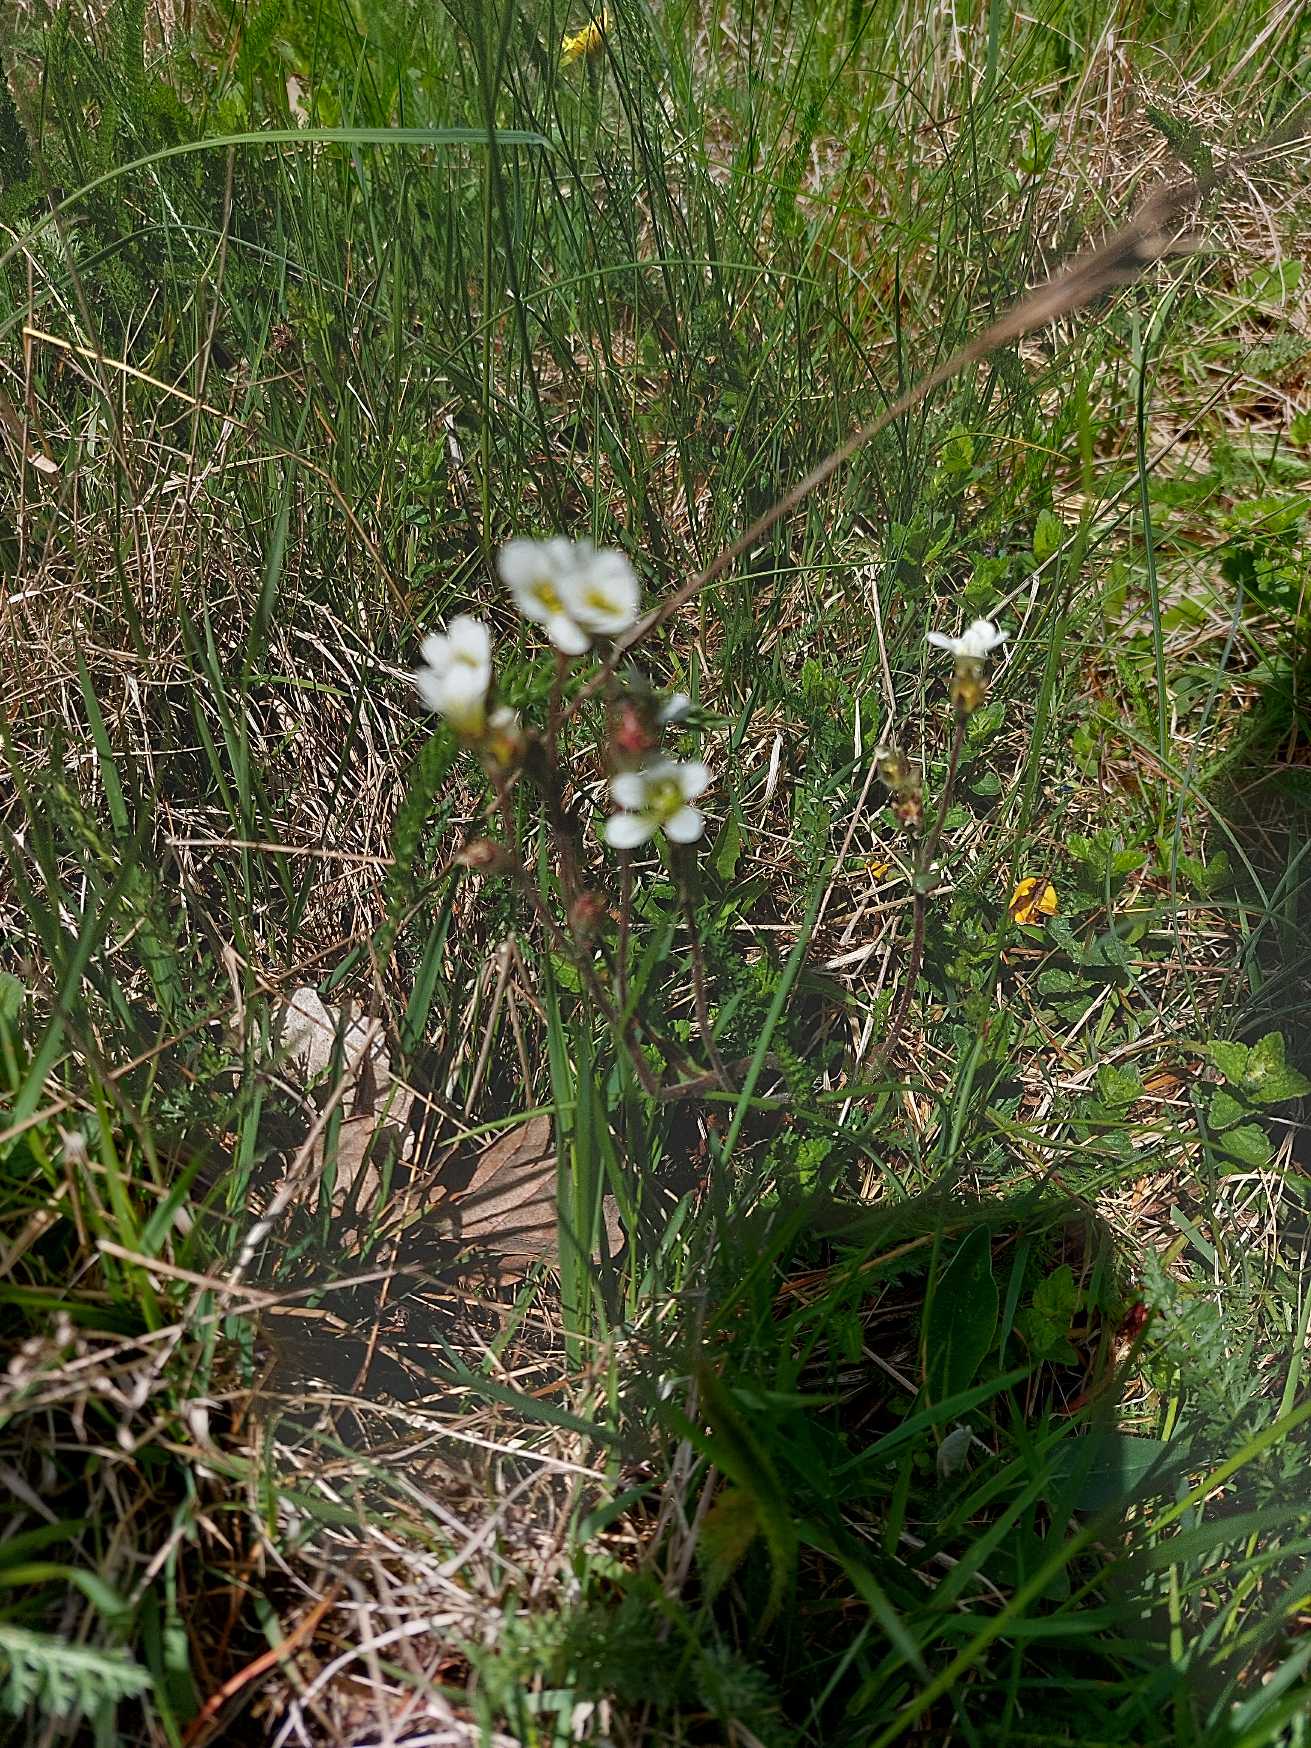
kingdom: Plantae
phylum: Tracheophyta
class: Magnoliopsida
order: Saxifragales
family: Saxifragaceae
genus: Saxifraga
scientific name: Saxifraga granulata
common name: Kornet stenbræk
